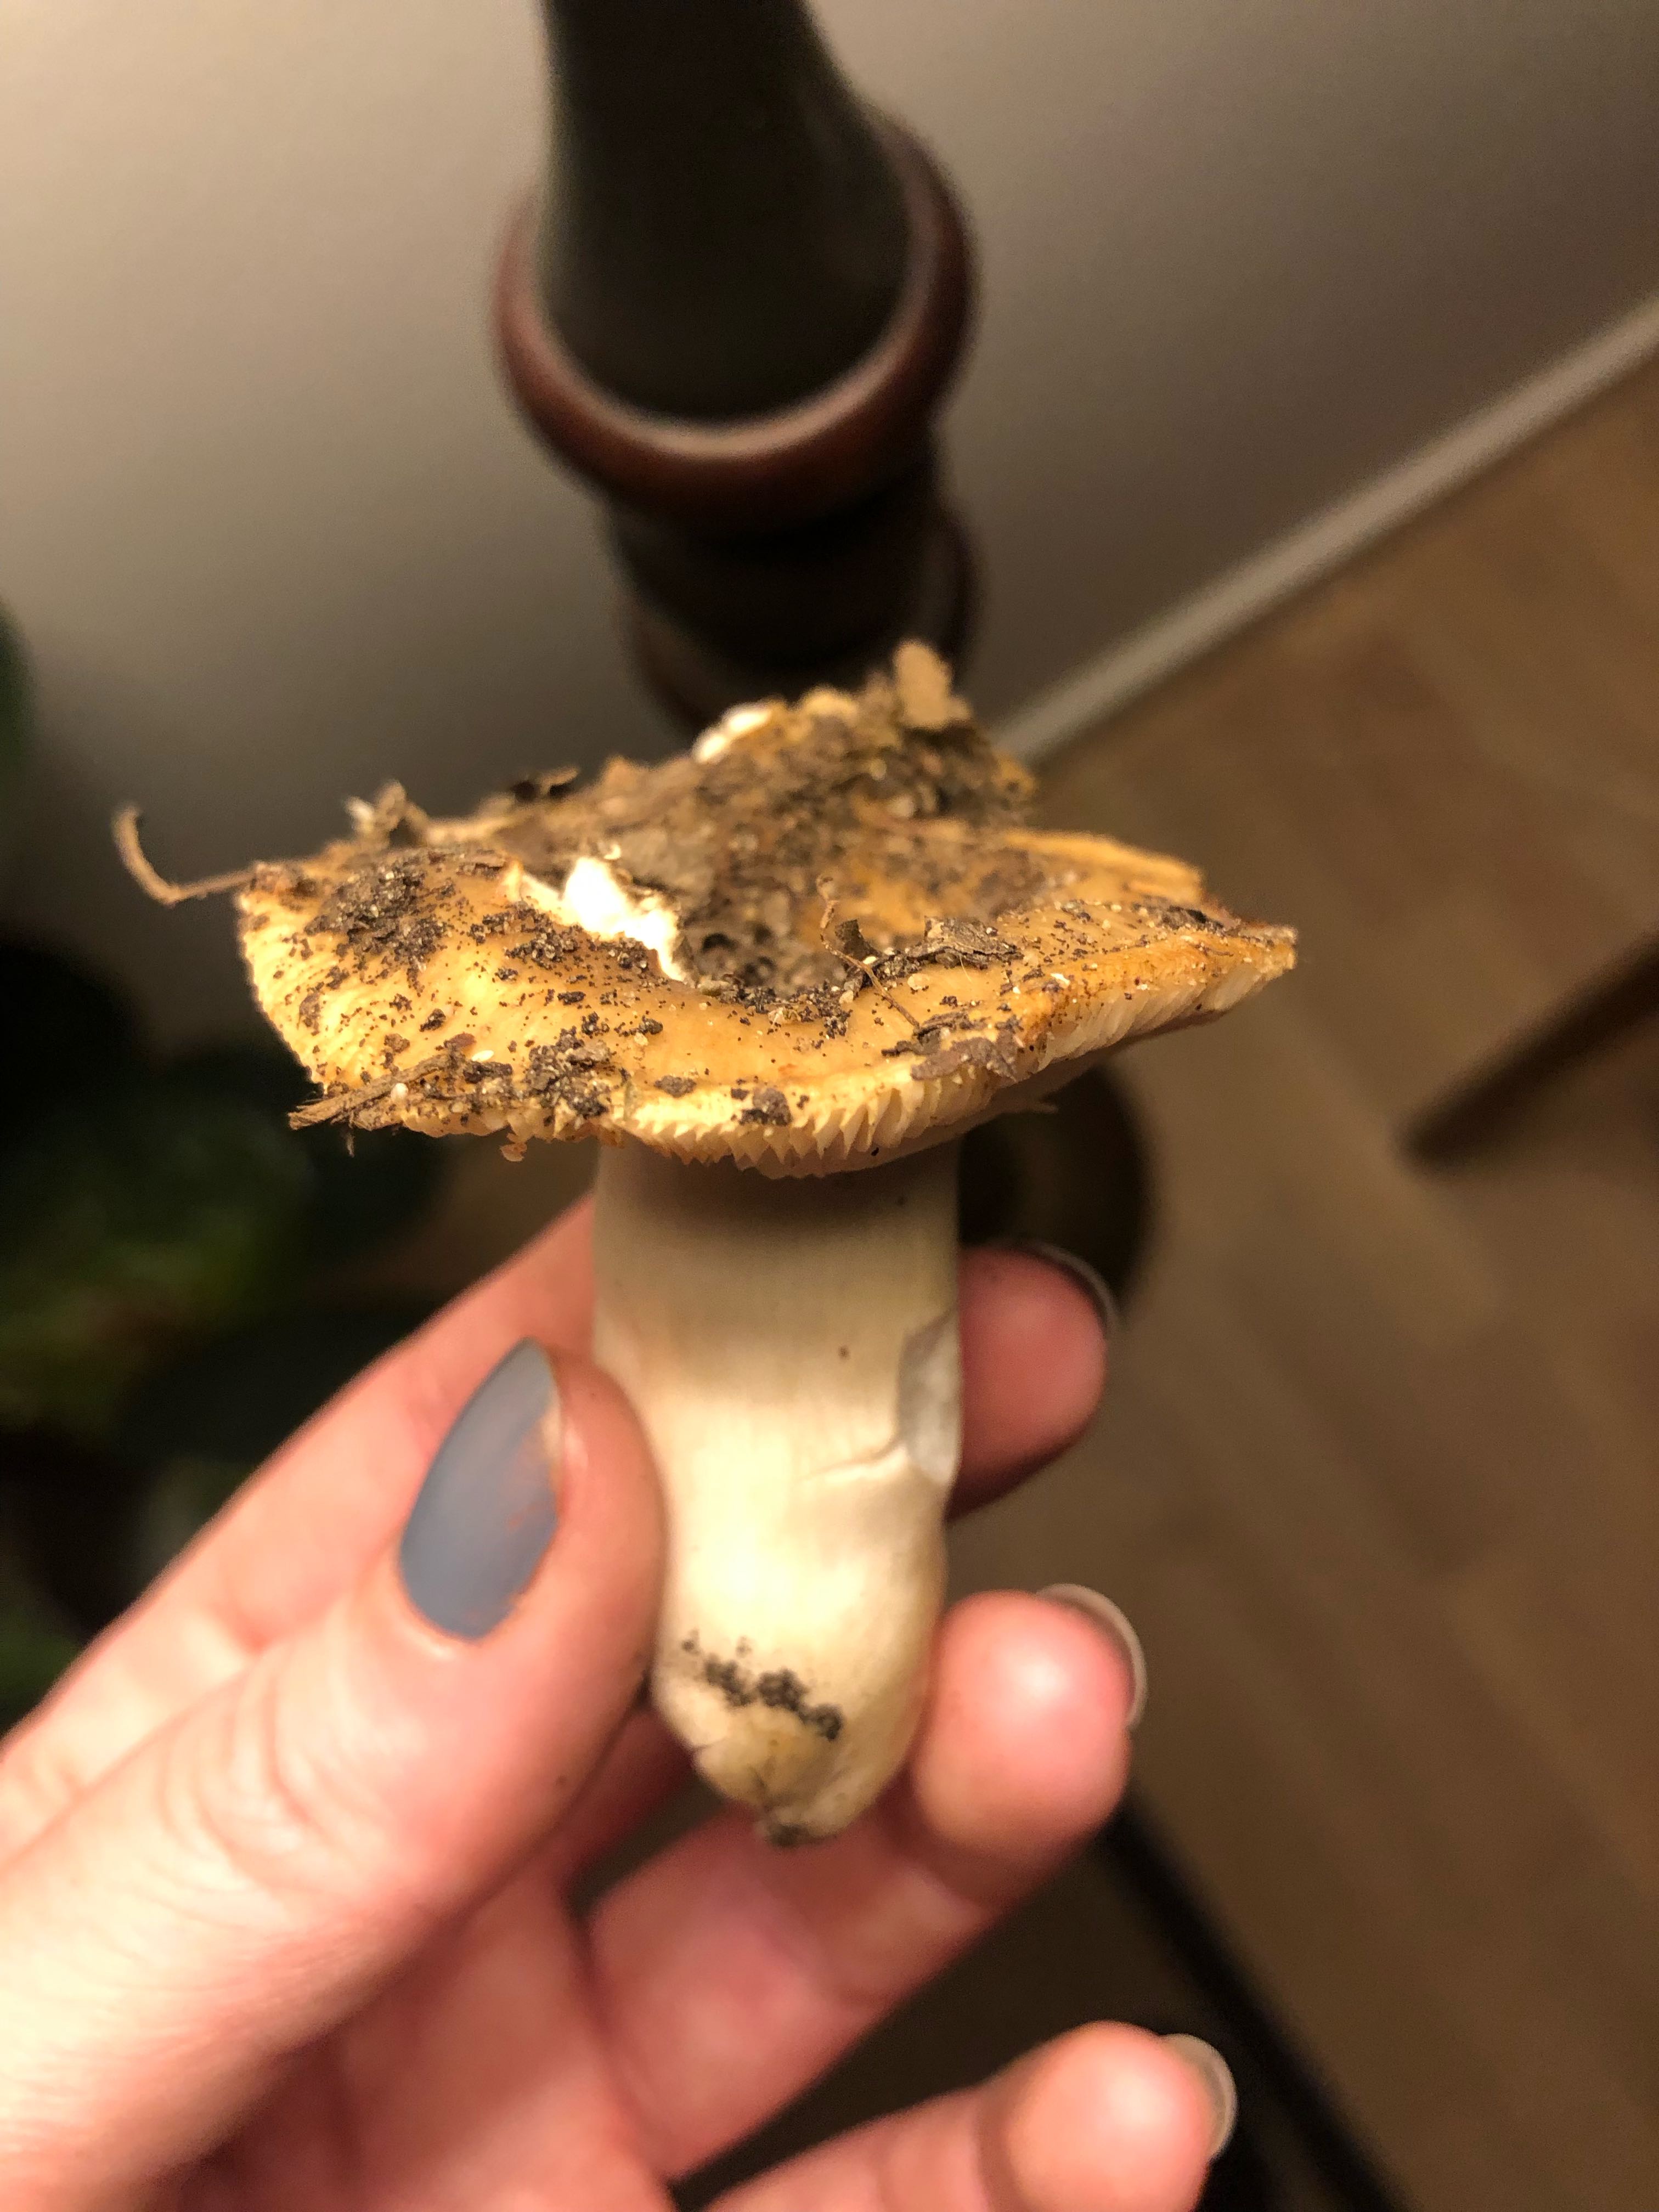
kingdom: Fungi
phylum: Basidiomycota
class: Agaricomycetes
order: Russulales
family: Russulaceae
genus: Russula
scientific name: Russula
